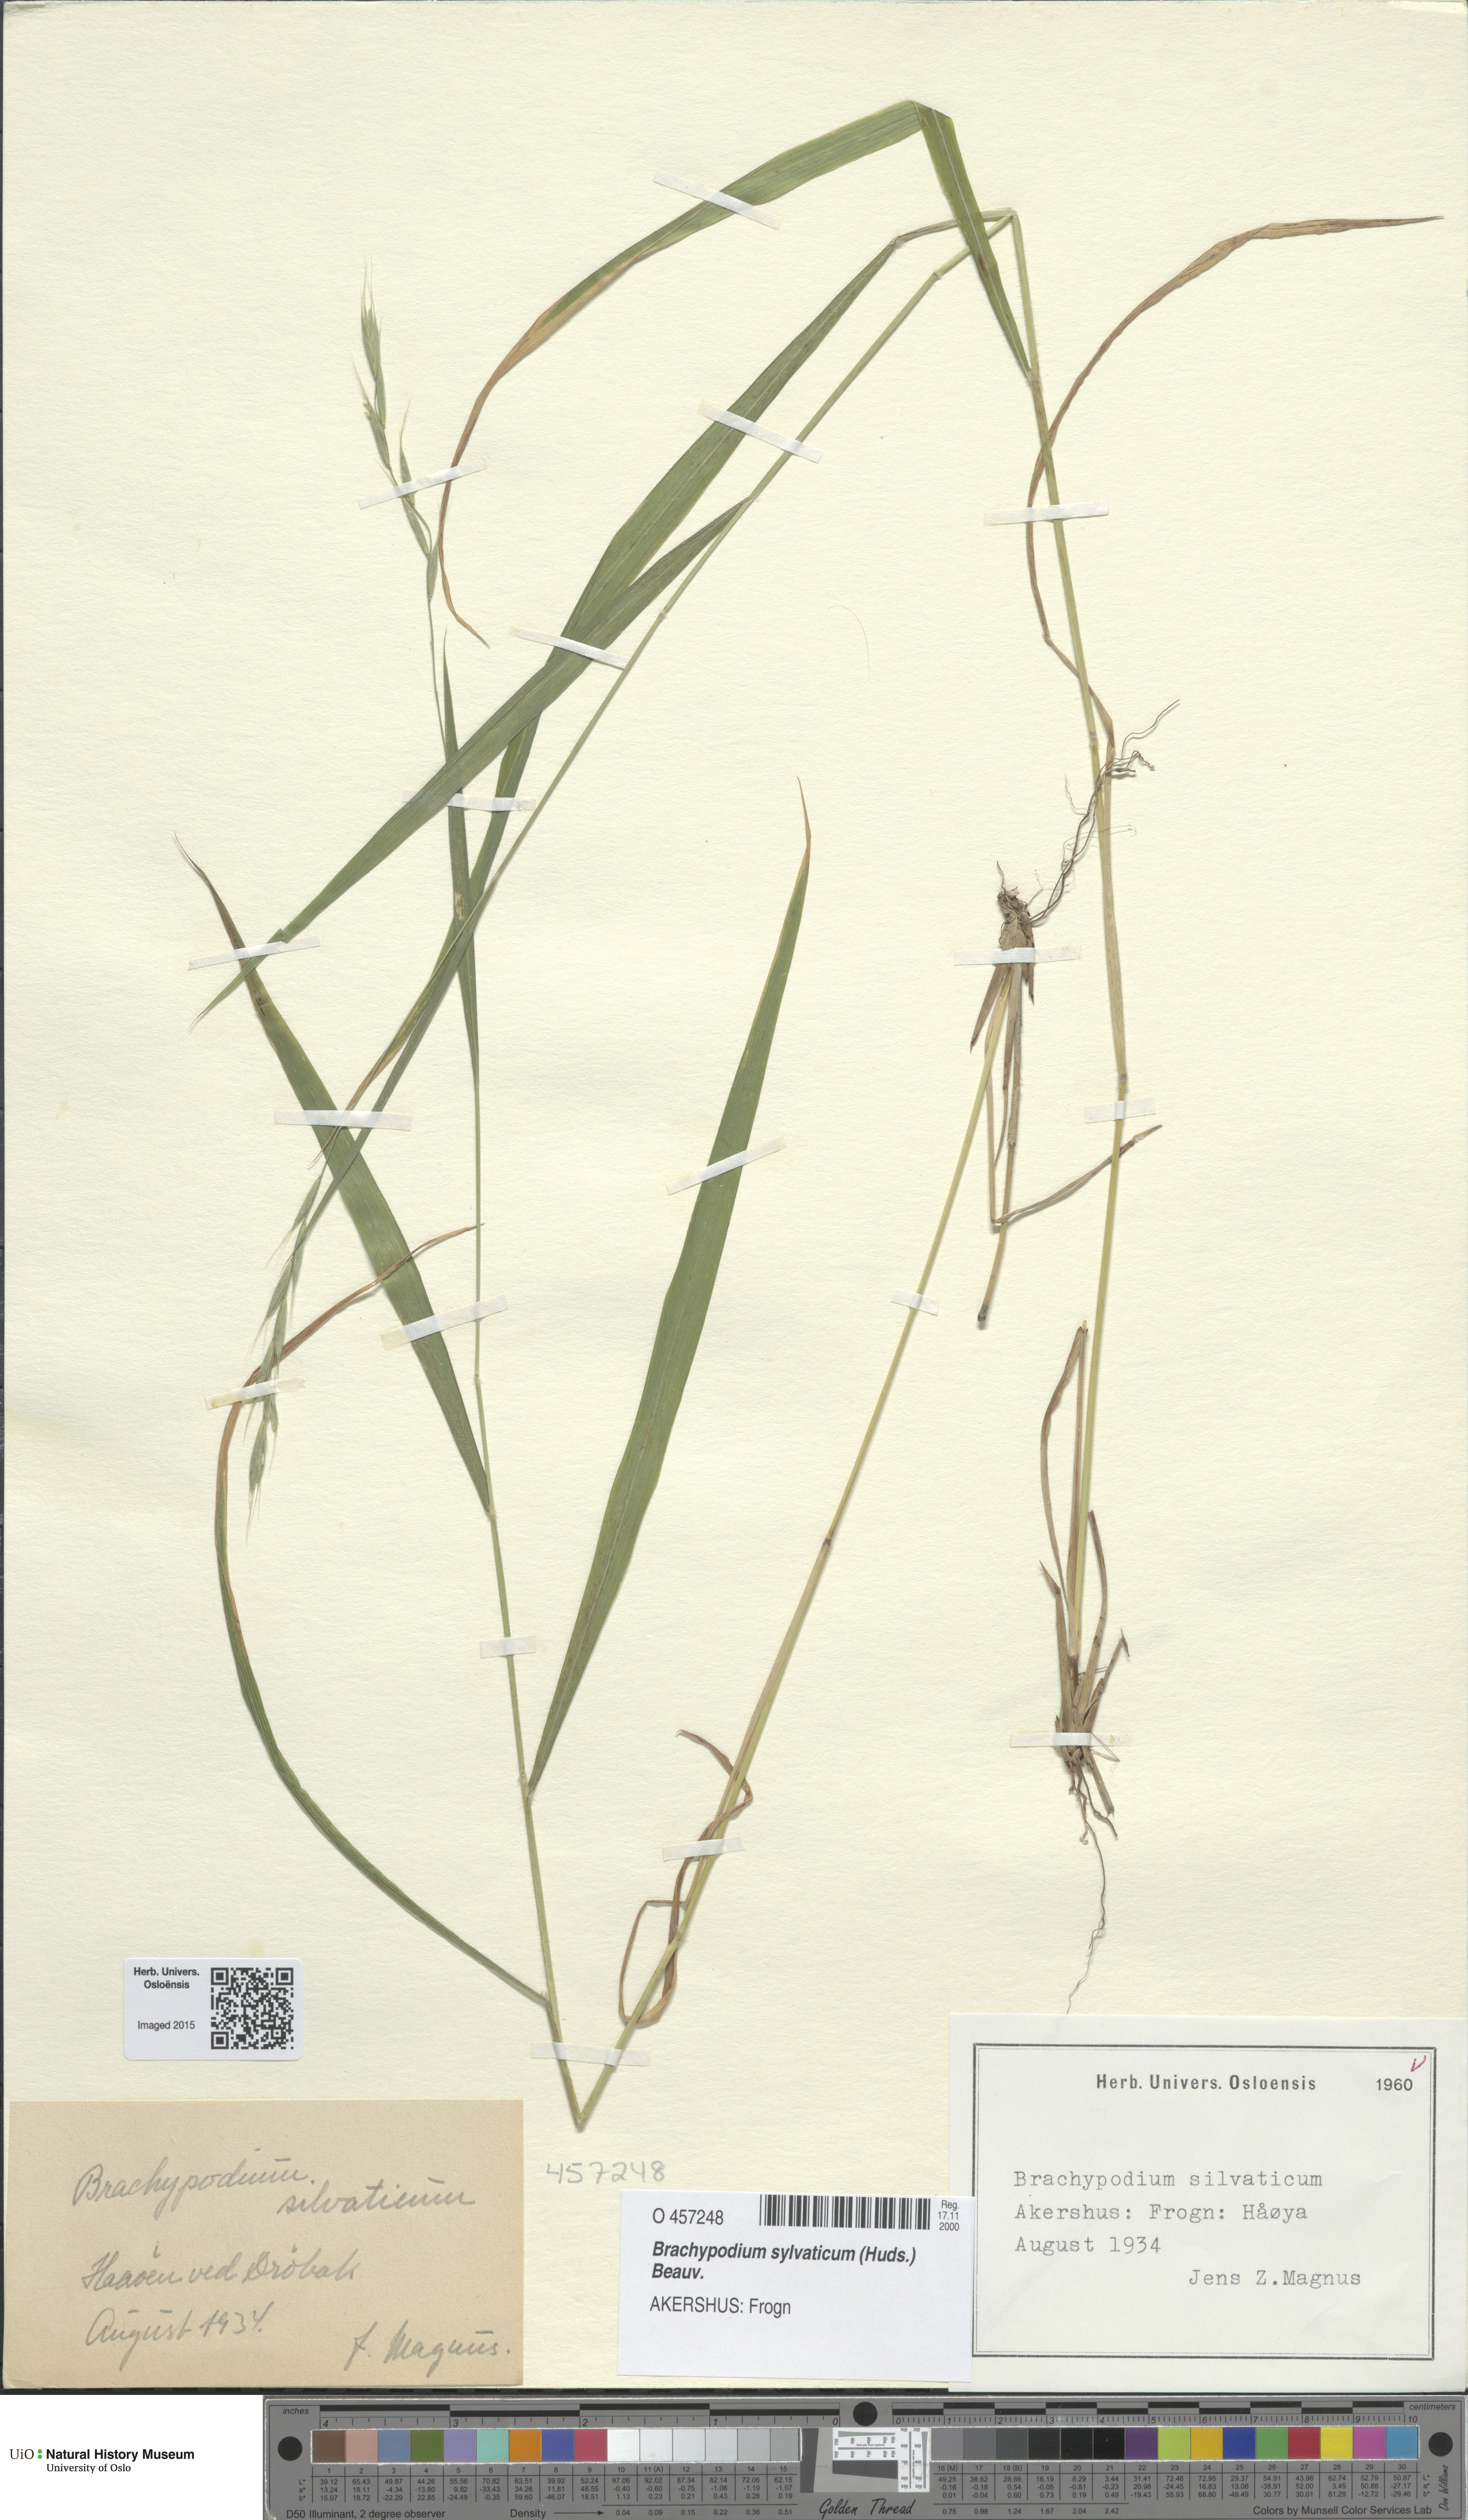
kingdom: Plantae
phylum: Tracheophyta
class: Liliopsida
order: Poales
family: Poaceae
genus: Brachypodium
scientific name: Brachypodium sylvaticum
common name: False-brome
